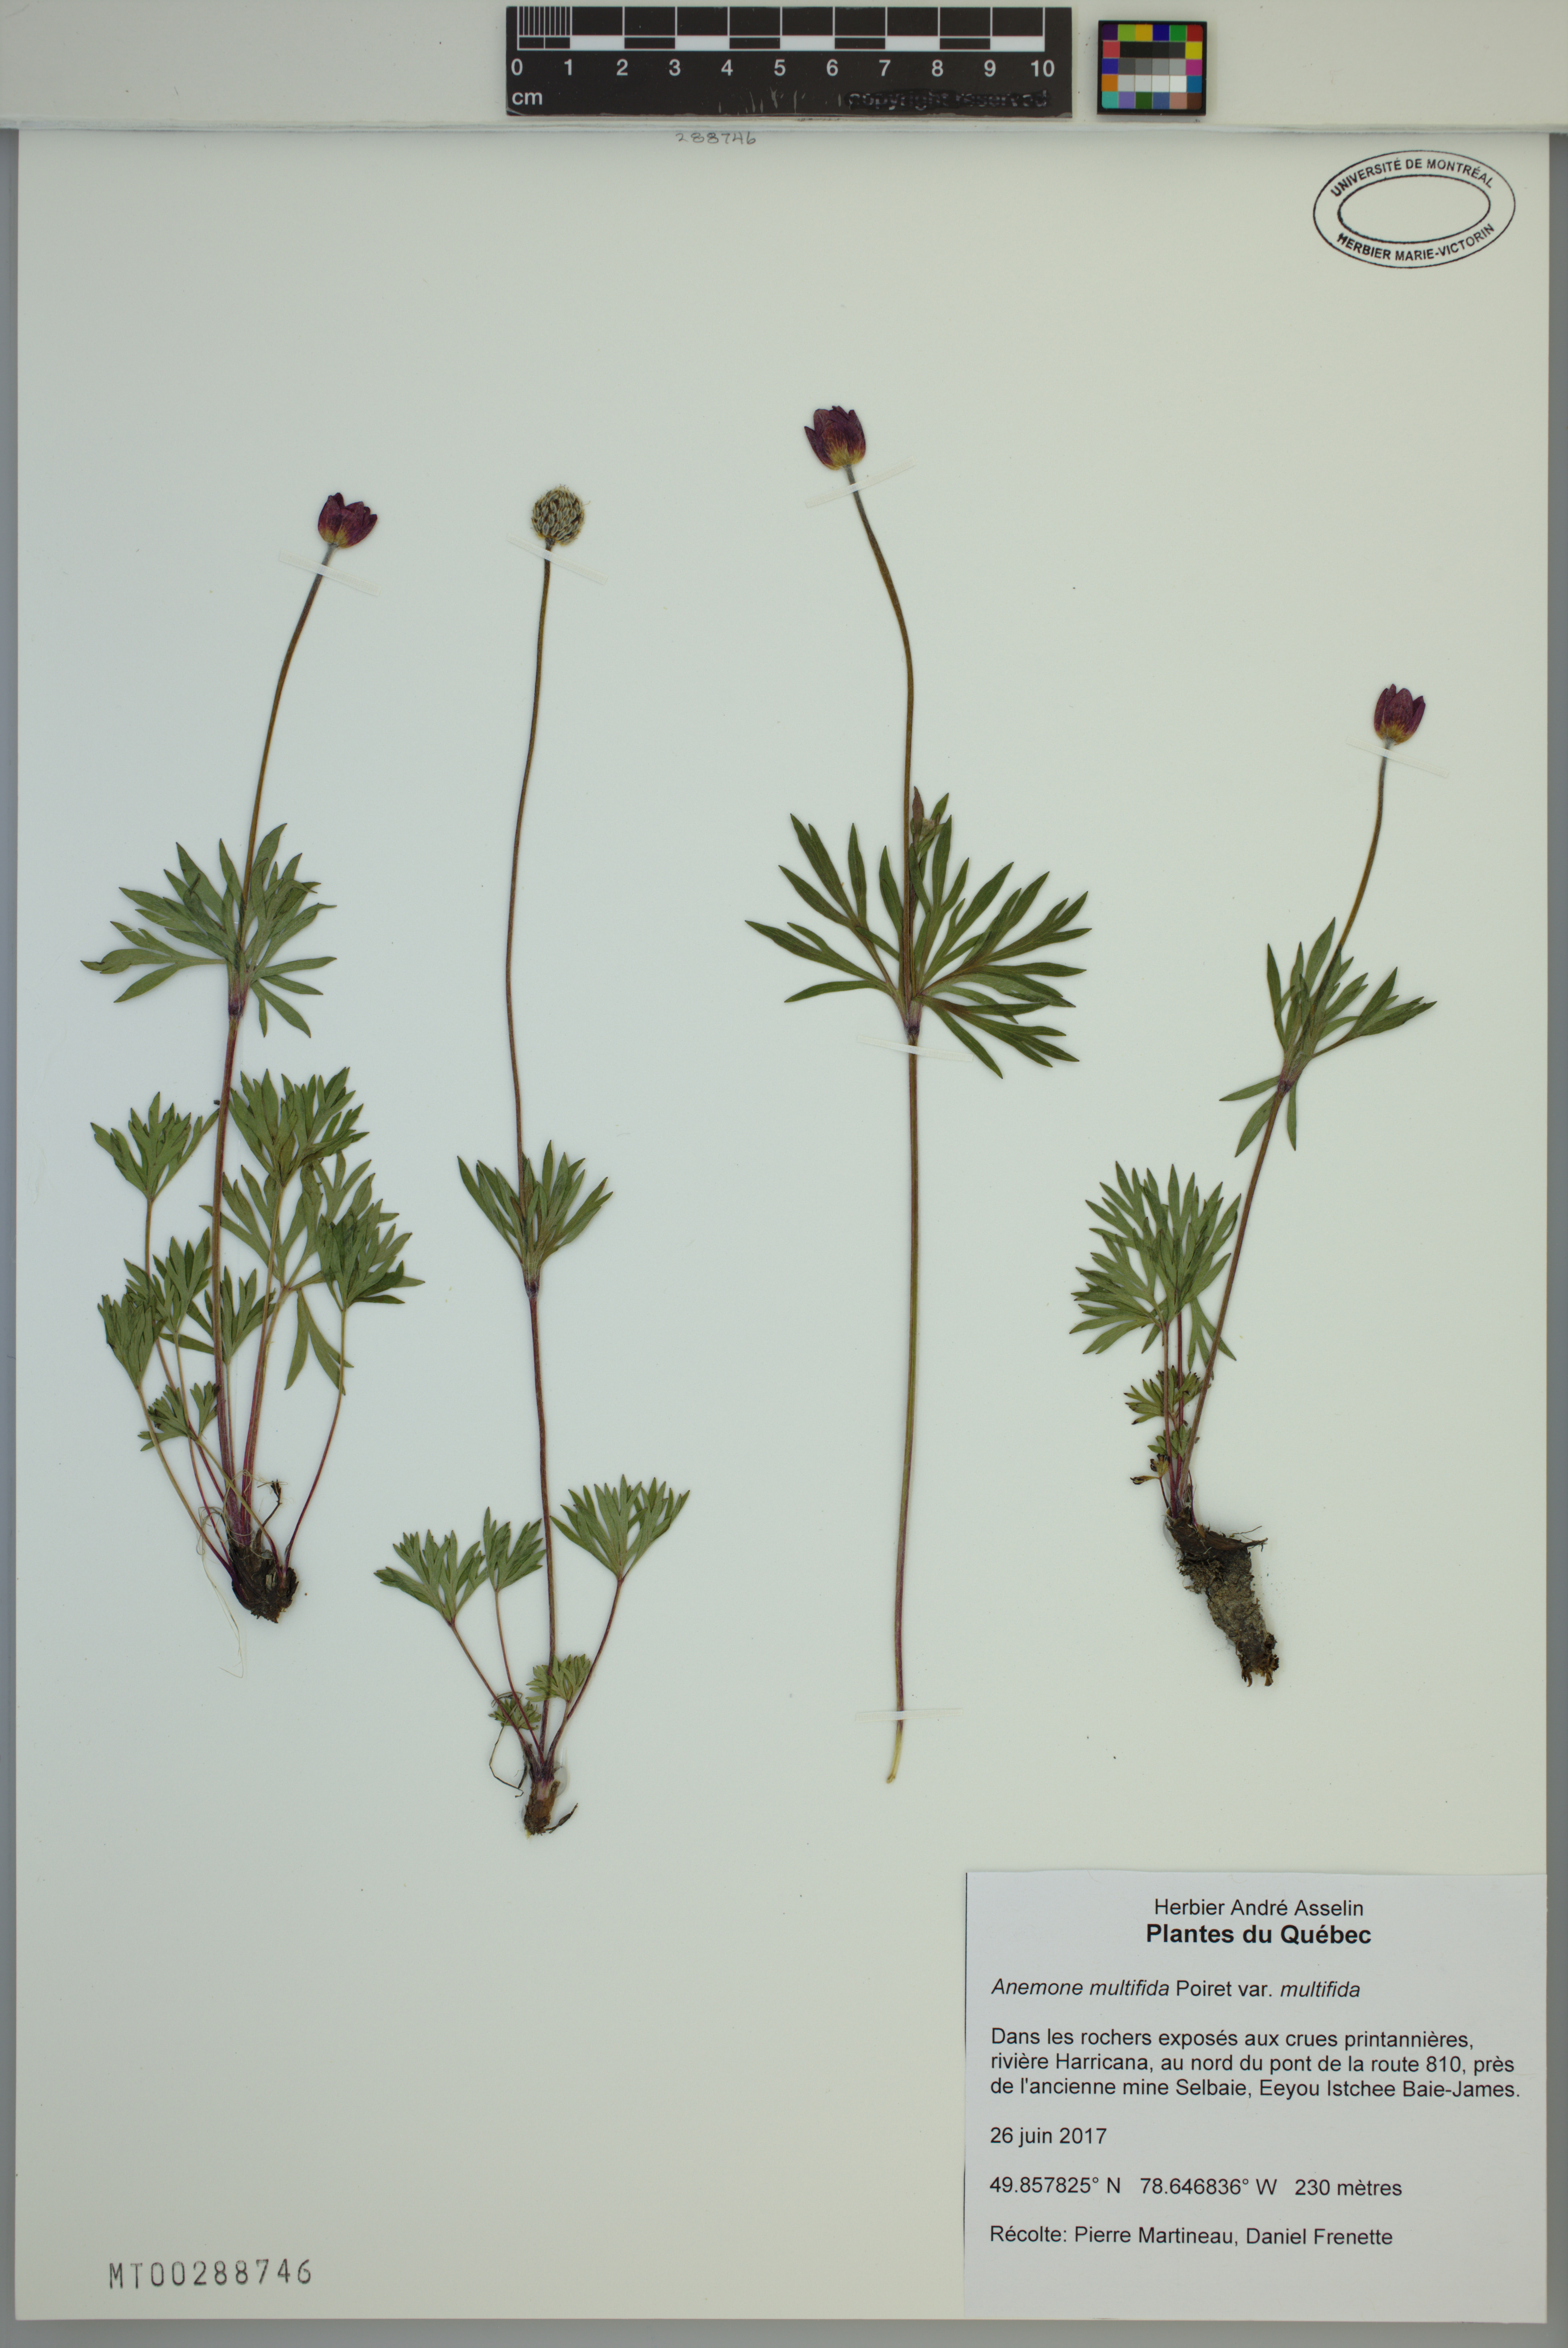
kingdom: Plantae
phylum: Tracheophyta
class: Magnoliopsida
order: Ranunculales
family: Ranunculaceae
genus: Anemone
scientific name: Anemone multifida
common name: Bird's-foot anemone
